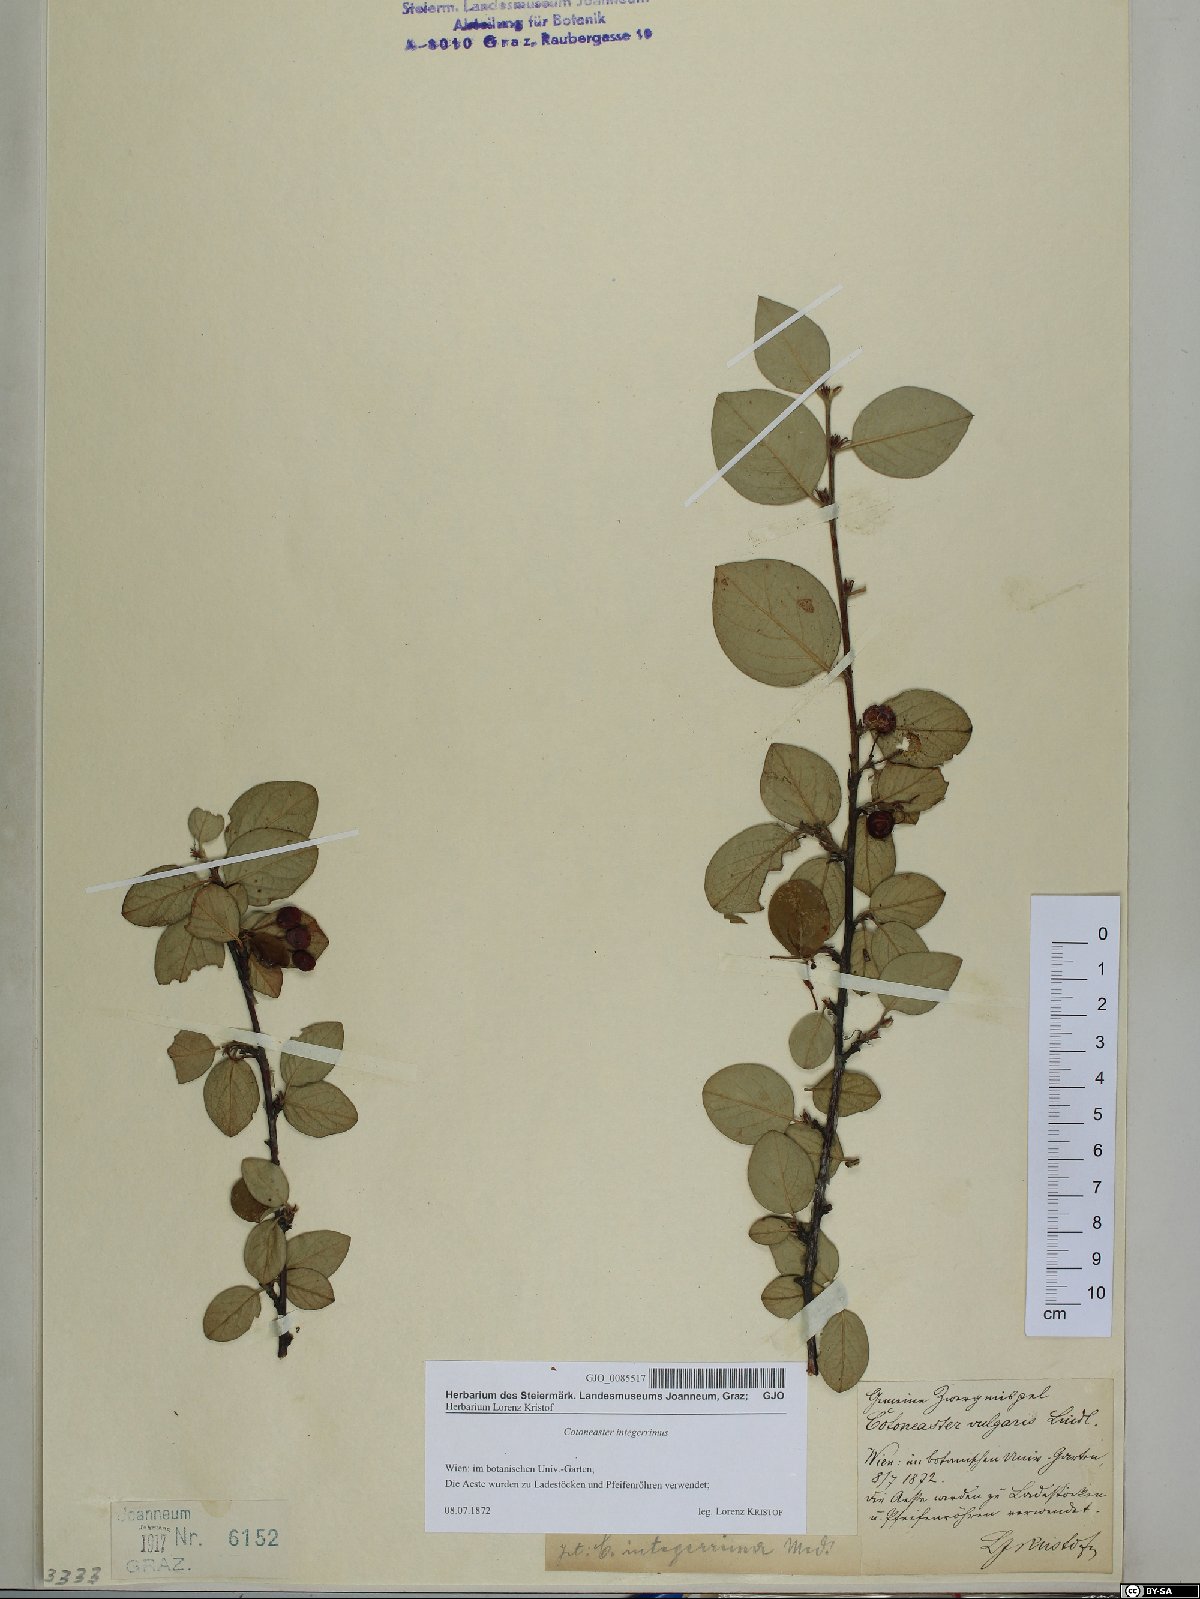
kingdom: Plantae
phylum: Tracheophyta
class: Magnoliopsida
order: Rosales
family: Rosaceae
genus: Cotoneaster
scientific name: Cotoneaster integerrimus
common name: Wild cotoneaster
